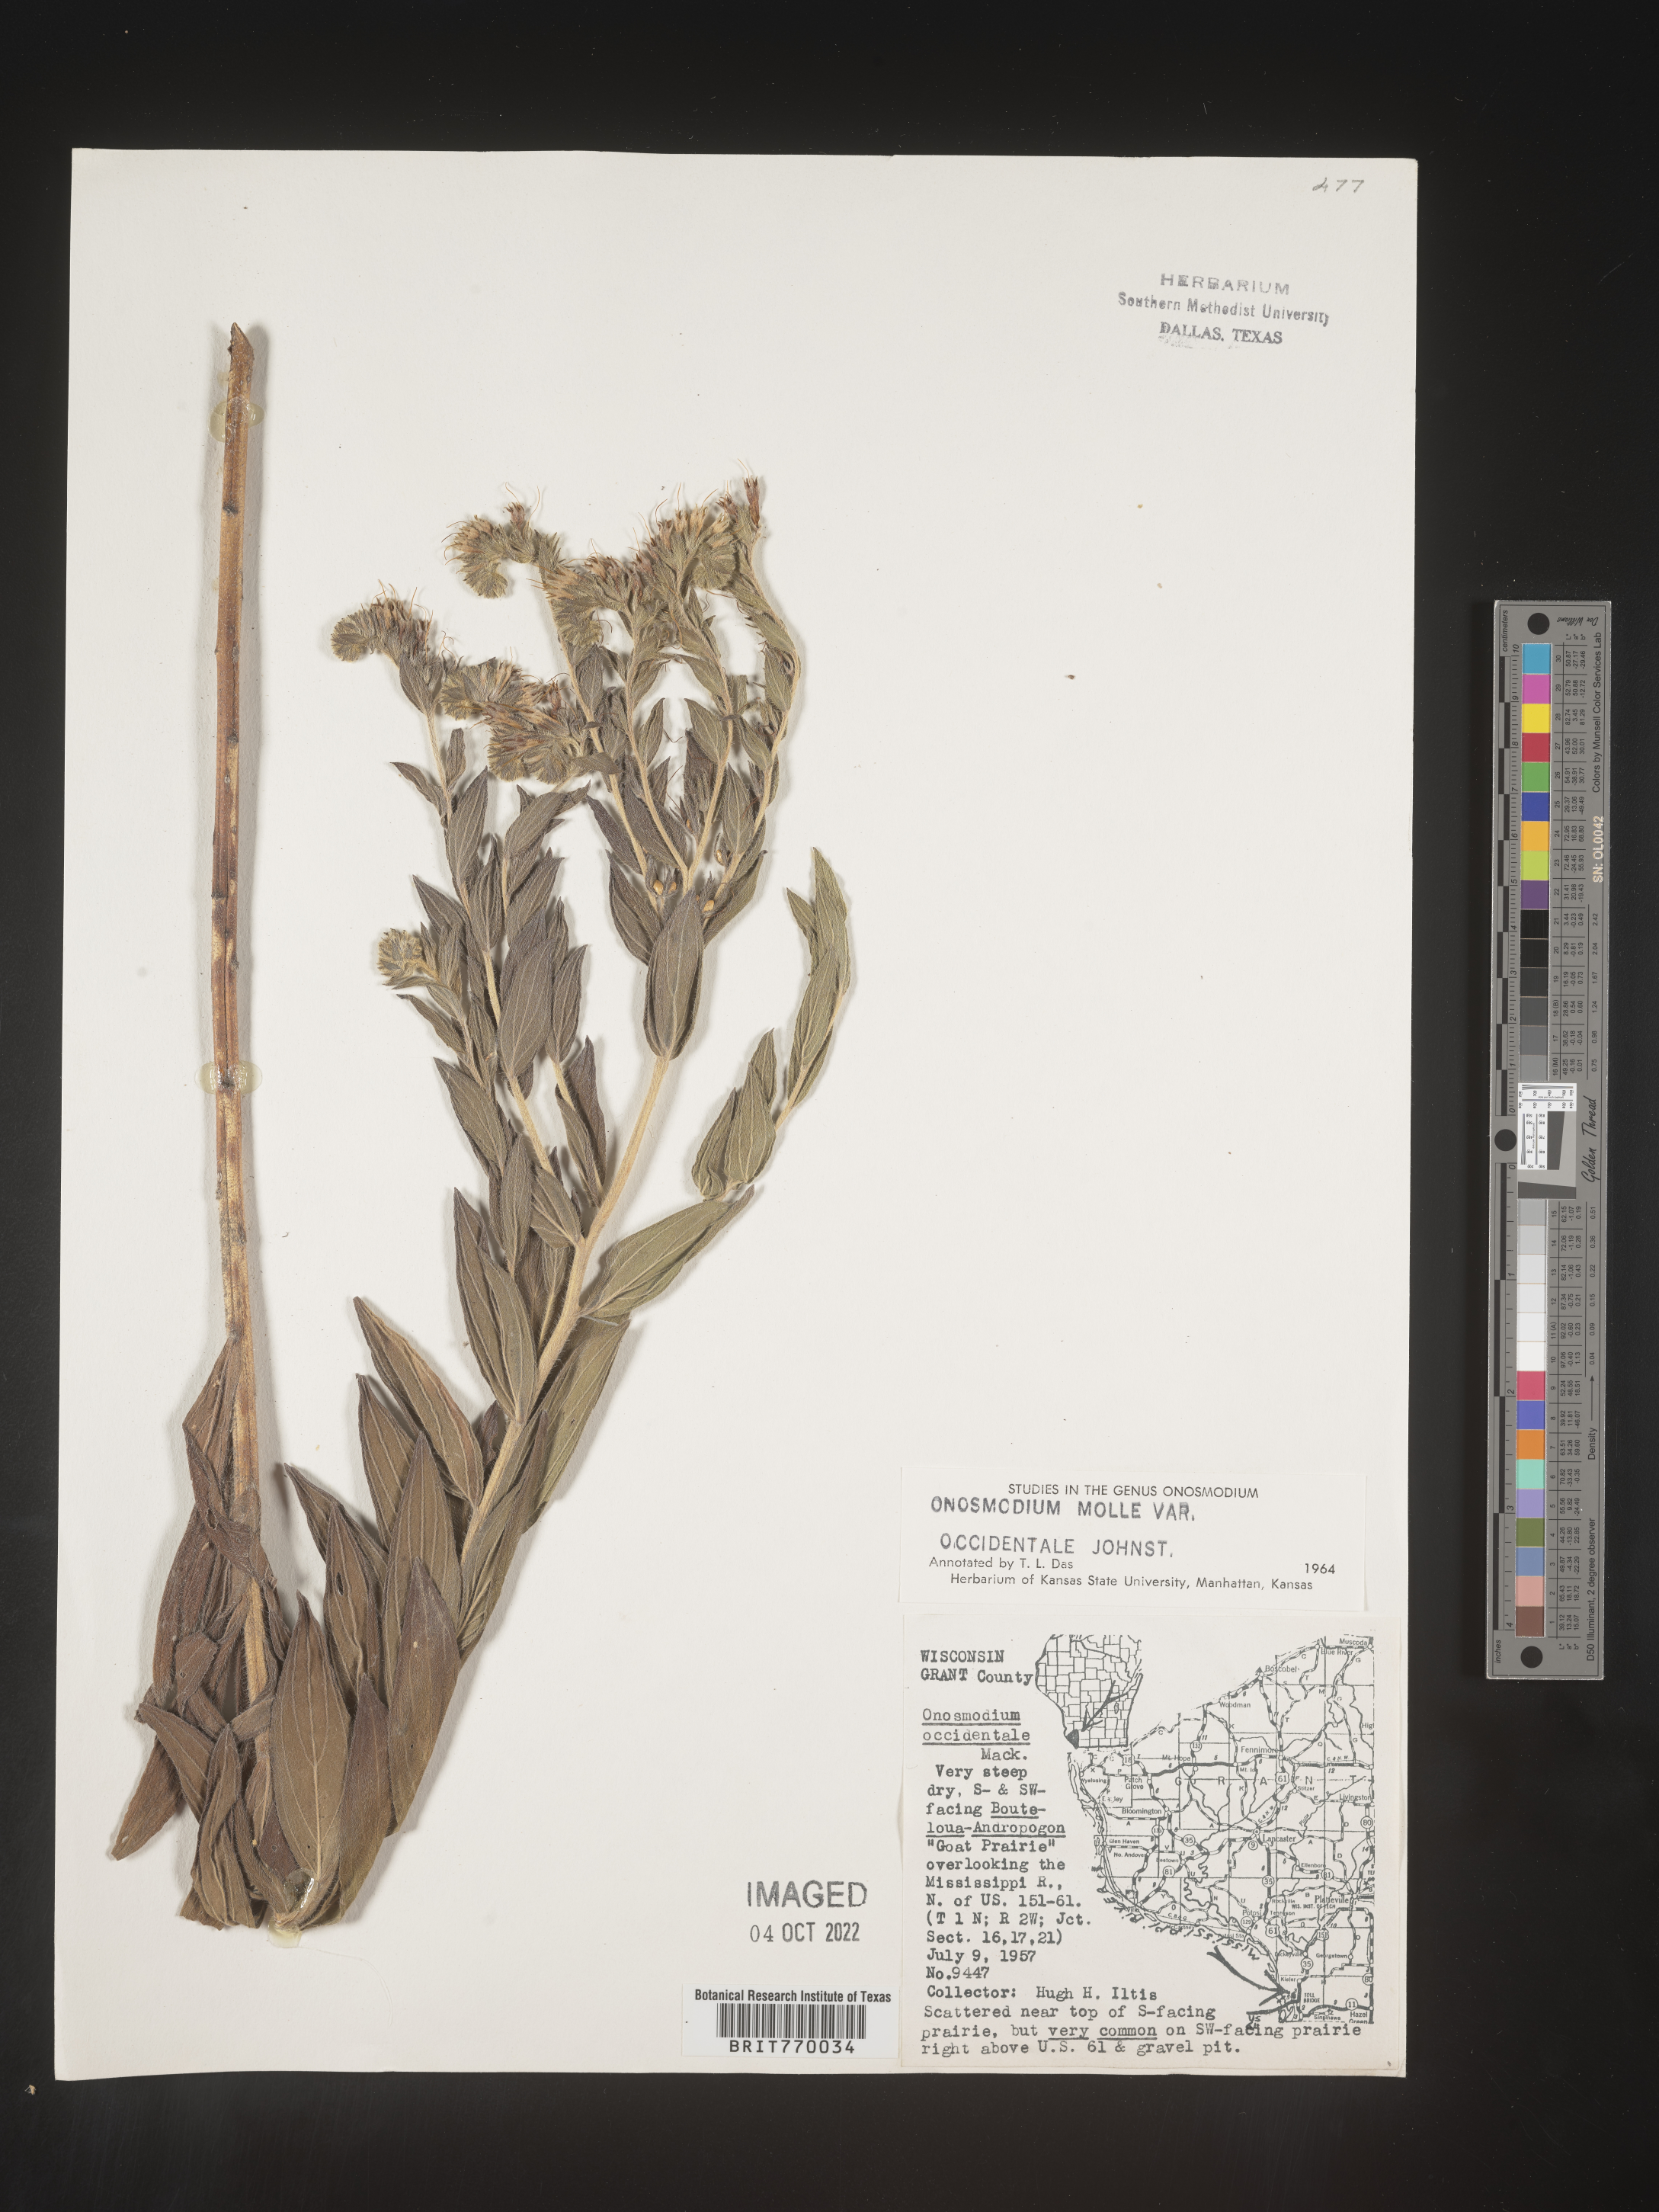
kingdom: Plantae
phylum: Tracheophyta
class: Magnoliopsida
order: Boraginales
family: Boraginaceae
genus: Lithospermum
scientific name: Lithospermum occidentale
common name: Western false gromwell
